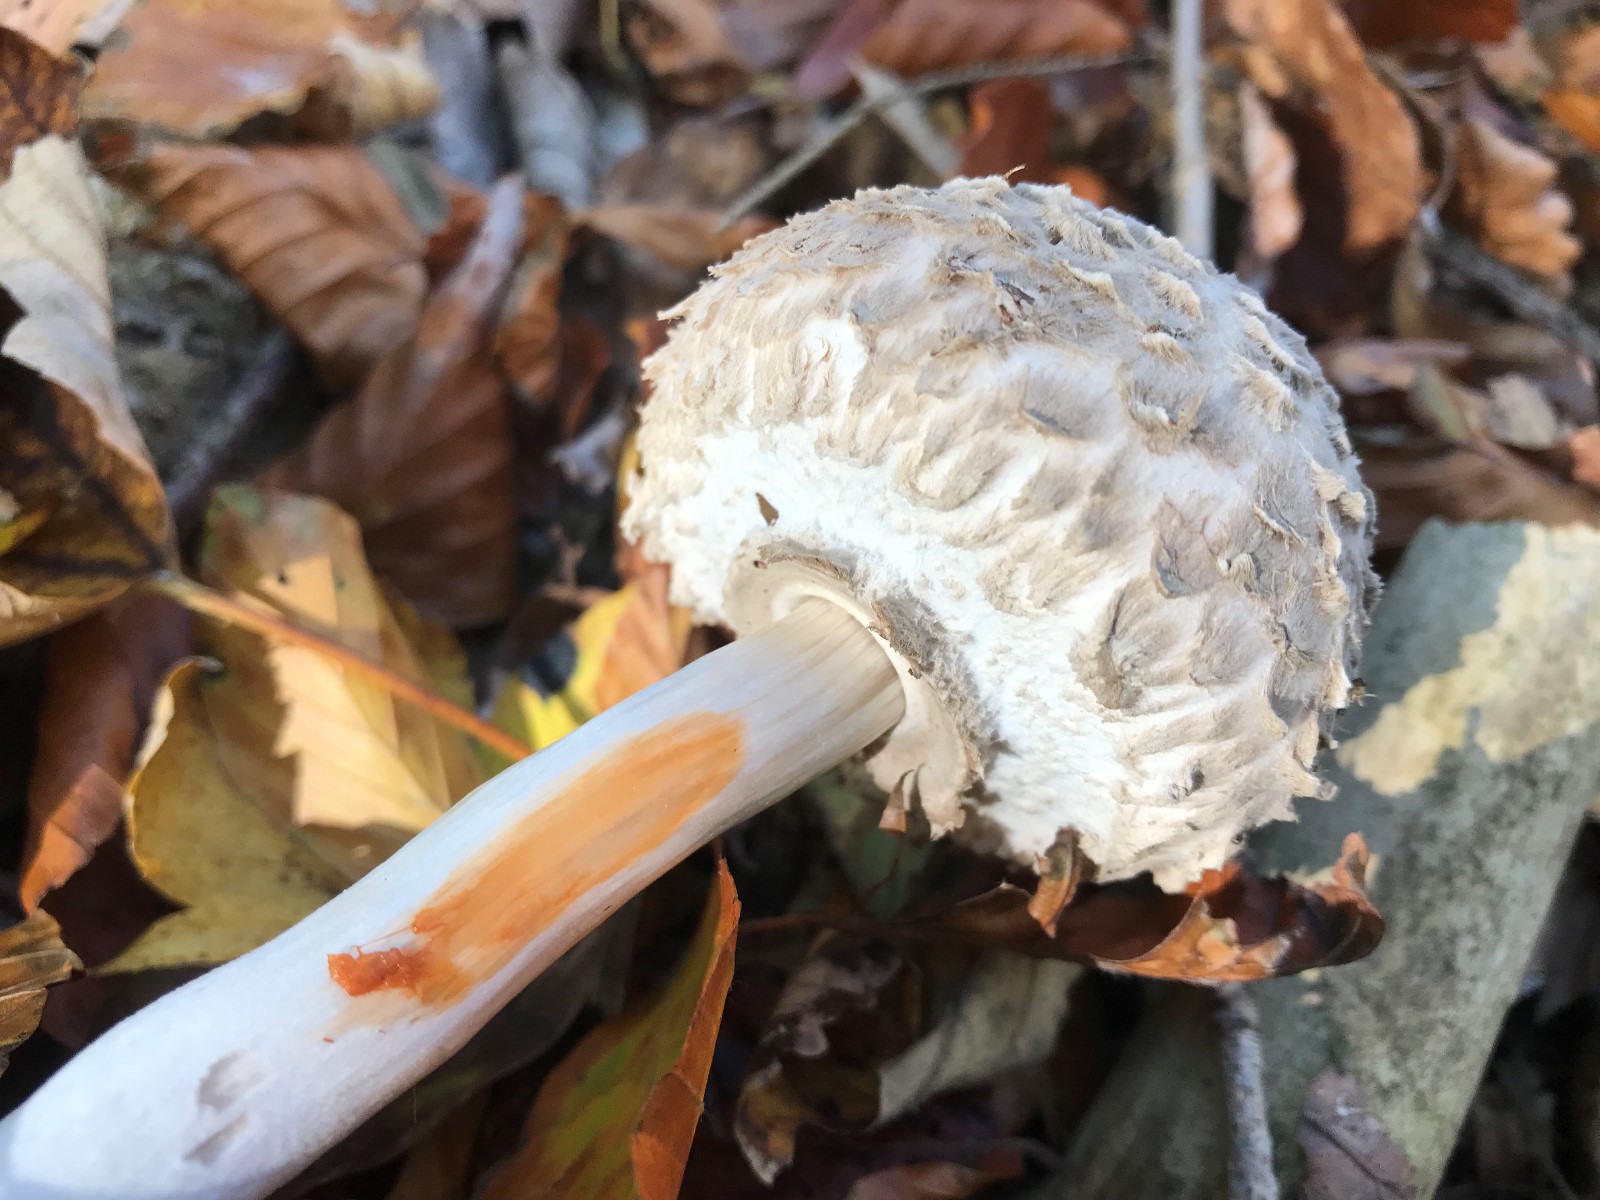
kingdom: Fungi
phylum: Basidiomycota
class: Agaricomycetes
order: Agaricales
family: Agaricaceae
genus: Chlorophyllum
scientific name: Chlorophyllum rhacodes
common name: ægte rabarberhat
